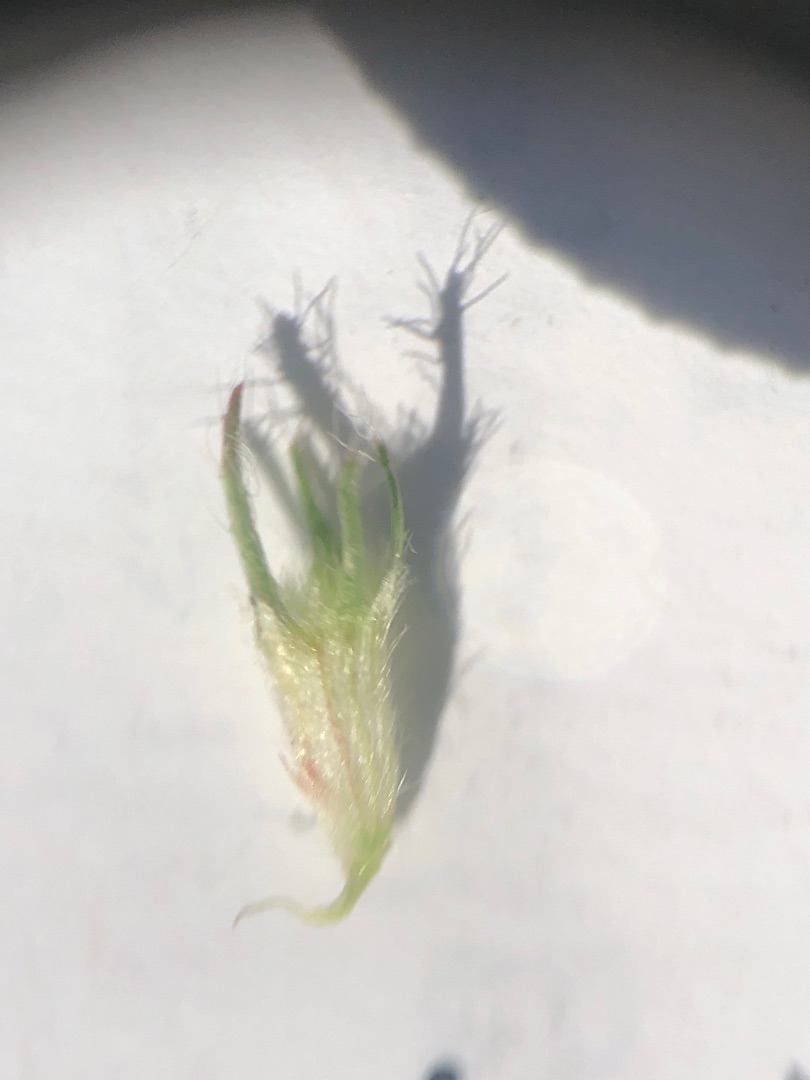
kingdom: Plantae
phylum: Tracheophyta
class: Magnoliopsida
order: Fabales
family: Fabaceae
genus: Trifolium
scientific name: Trifolium pratense
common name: Rød-kløver
